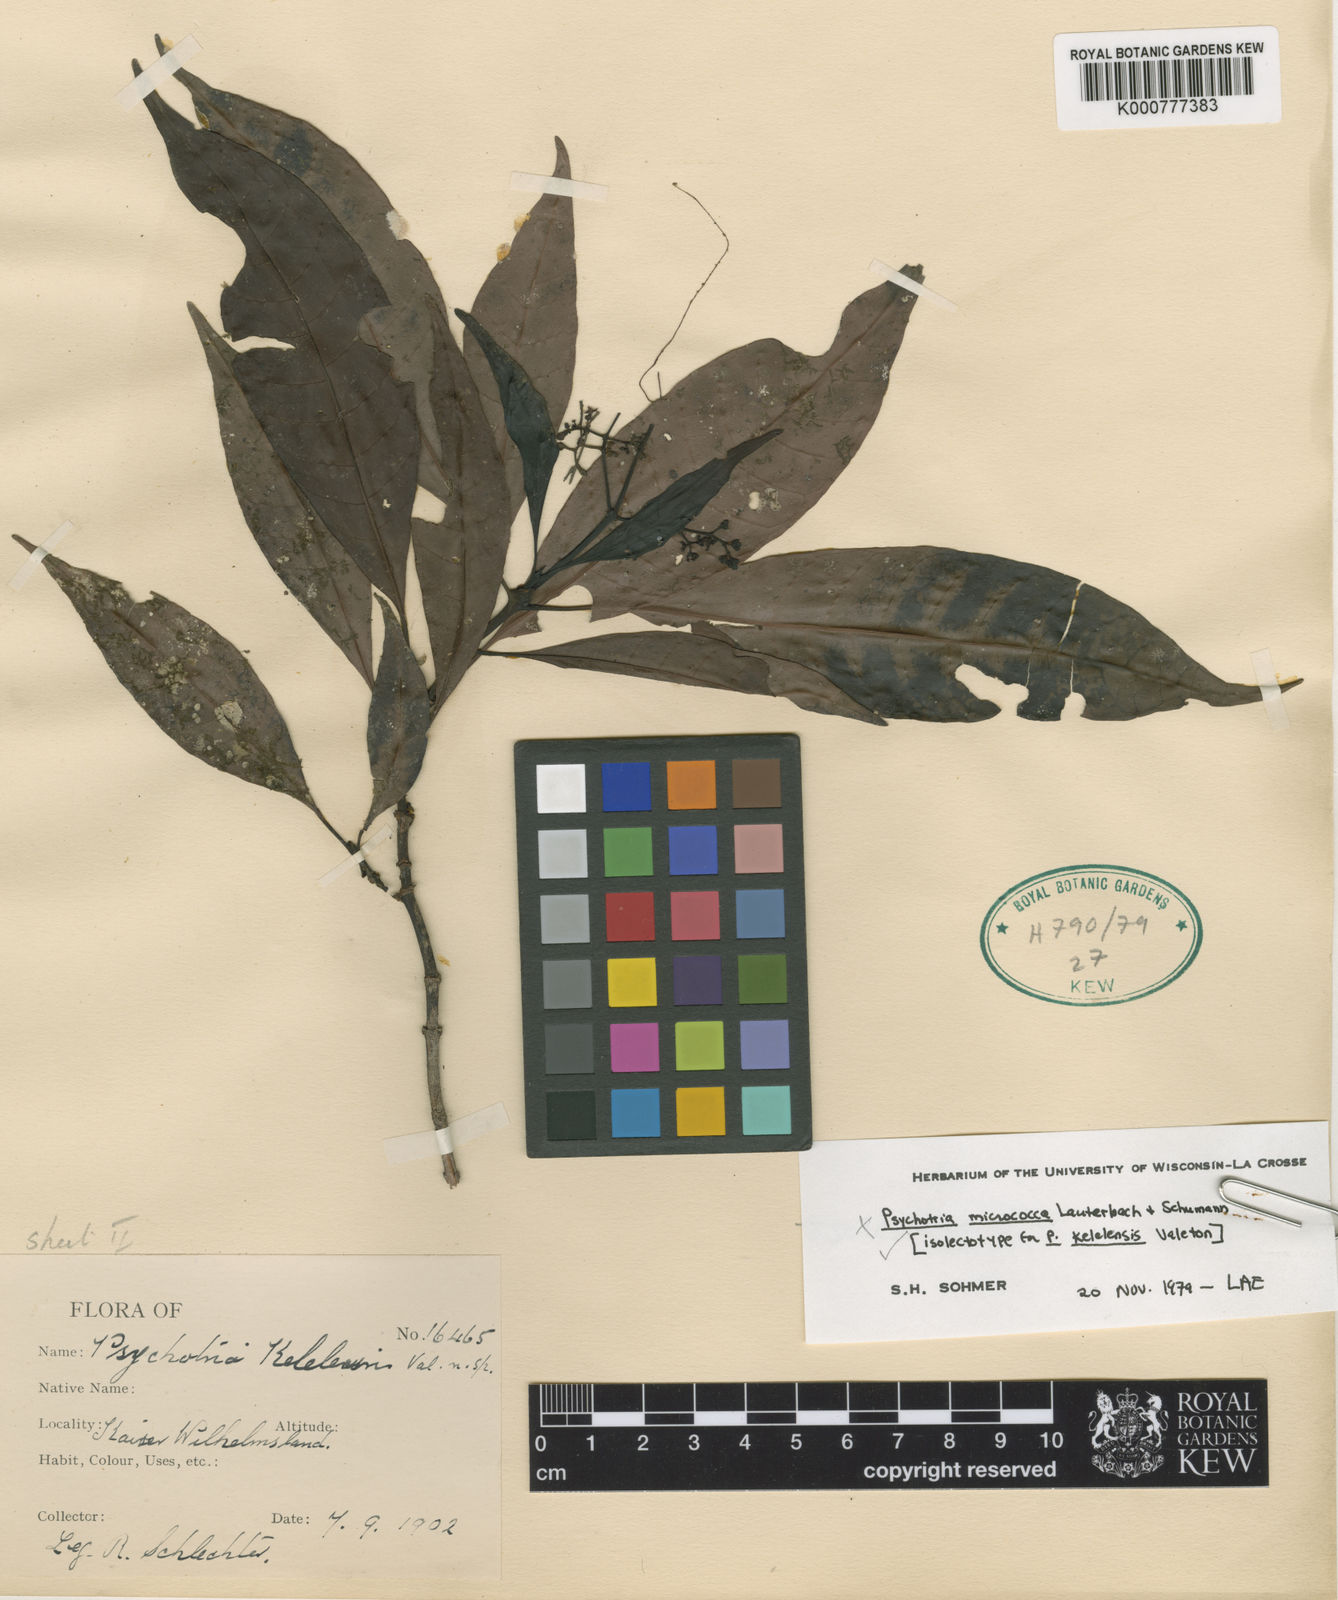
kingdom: Plantae
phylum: Tracheophyta
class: Magnoliopsida
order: Gentianales
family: Rubiaceae
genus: Psychotria
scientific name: Psychotria kelelensis
